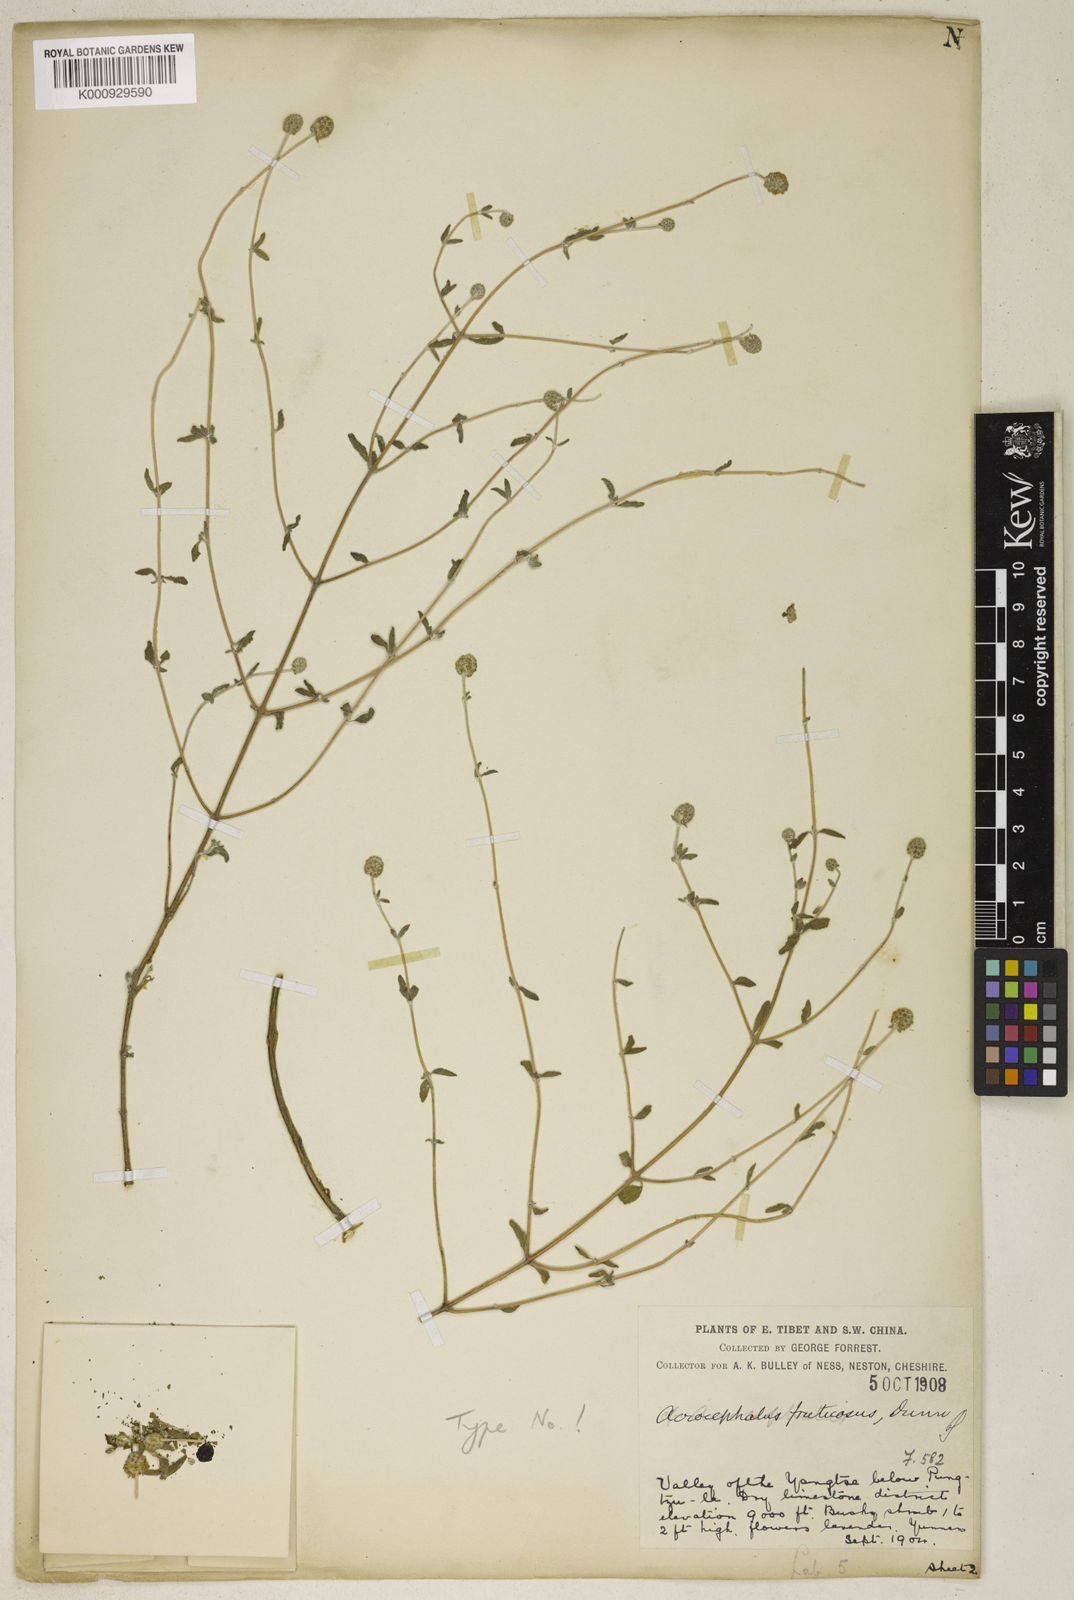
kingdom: Plantae
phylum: Tracheophyta
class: Magnoliopsida
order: Lamiales
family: Lamiaceae
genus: Elsholtzia
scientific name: Elsholtzia capituligera
